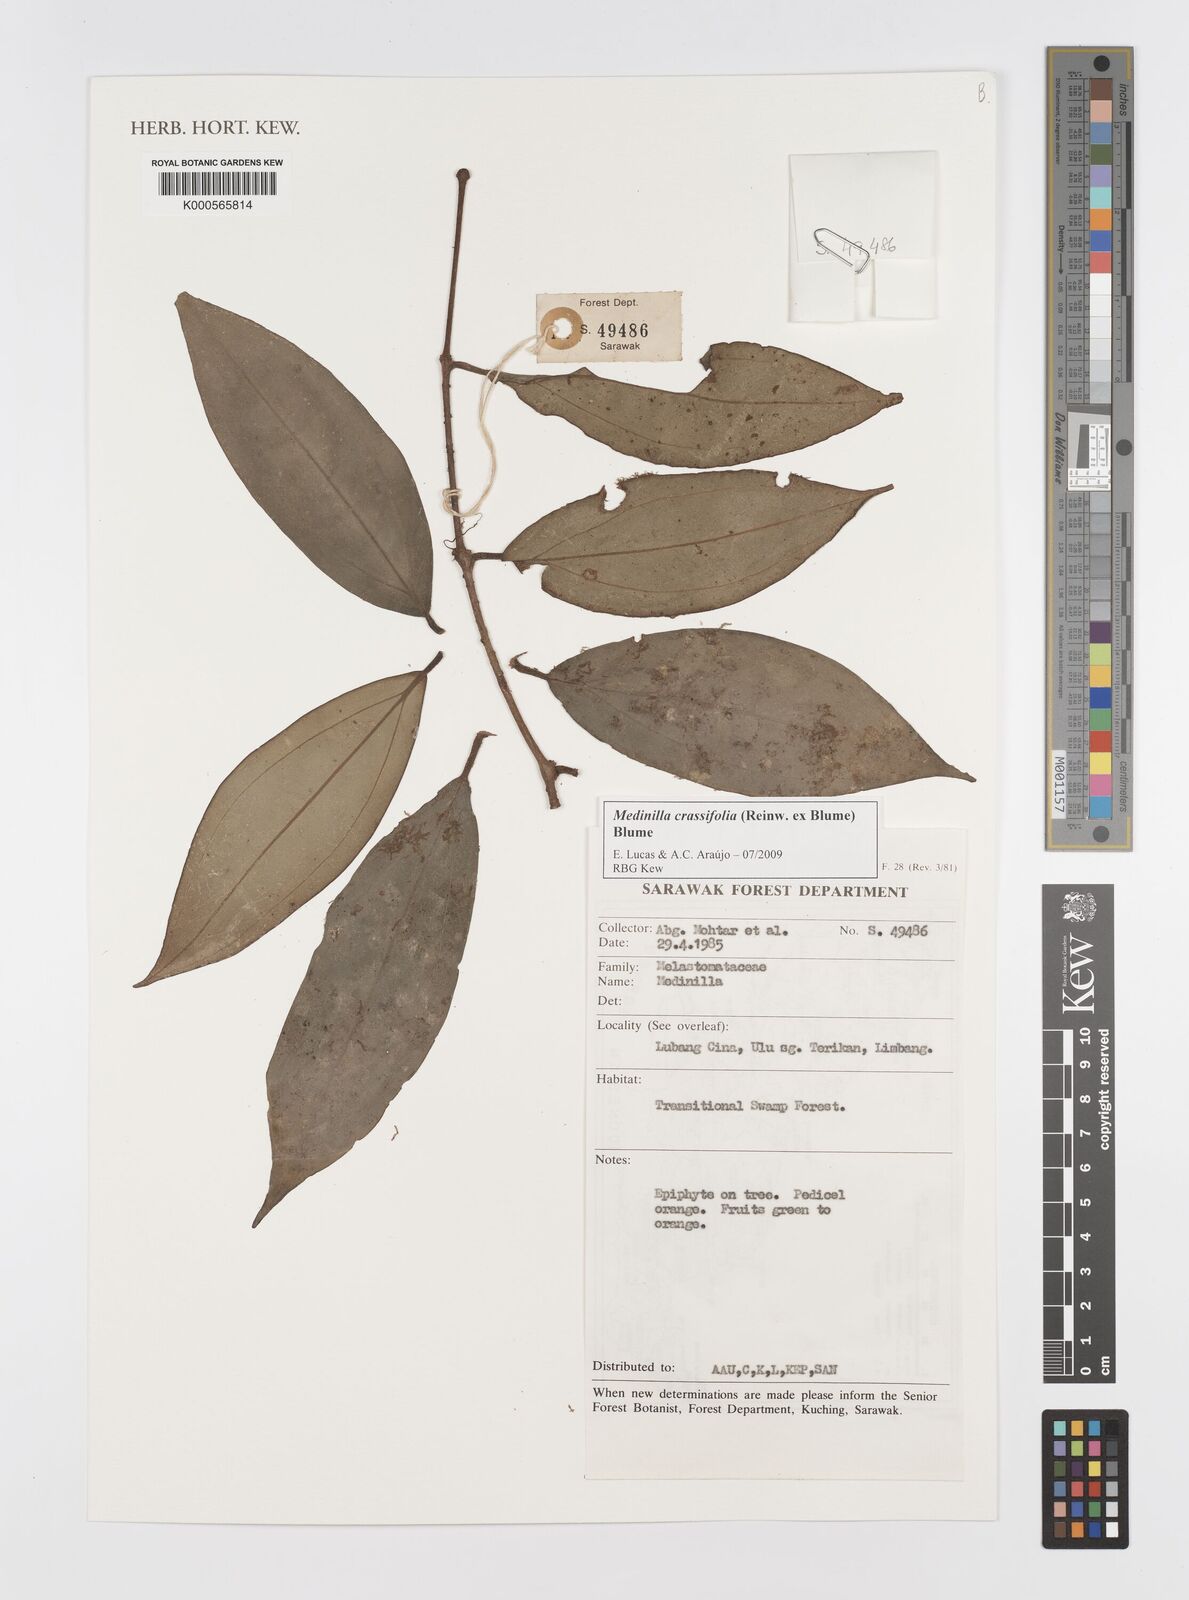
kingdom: Plantae
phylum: Tracheophyta
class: Magnoliopsida
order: Myrtales
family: Melastomataceae
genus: Medinilla
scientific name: Medinilla crassifolia
